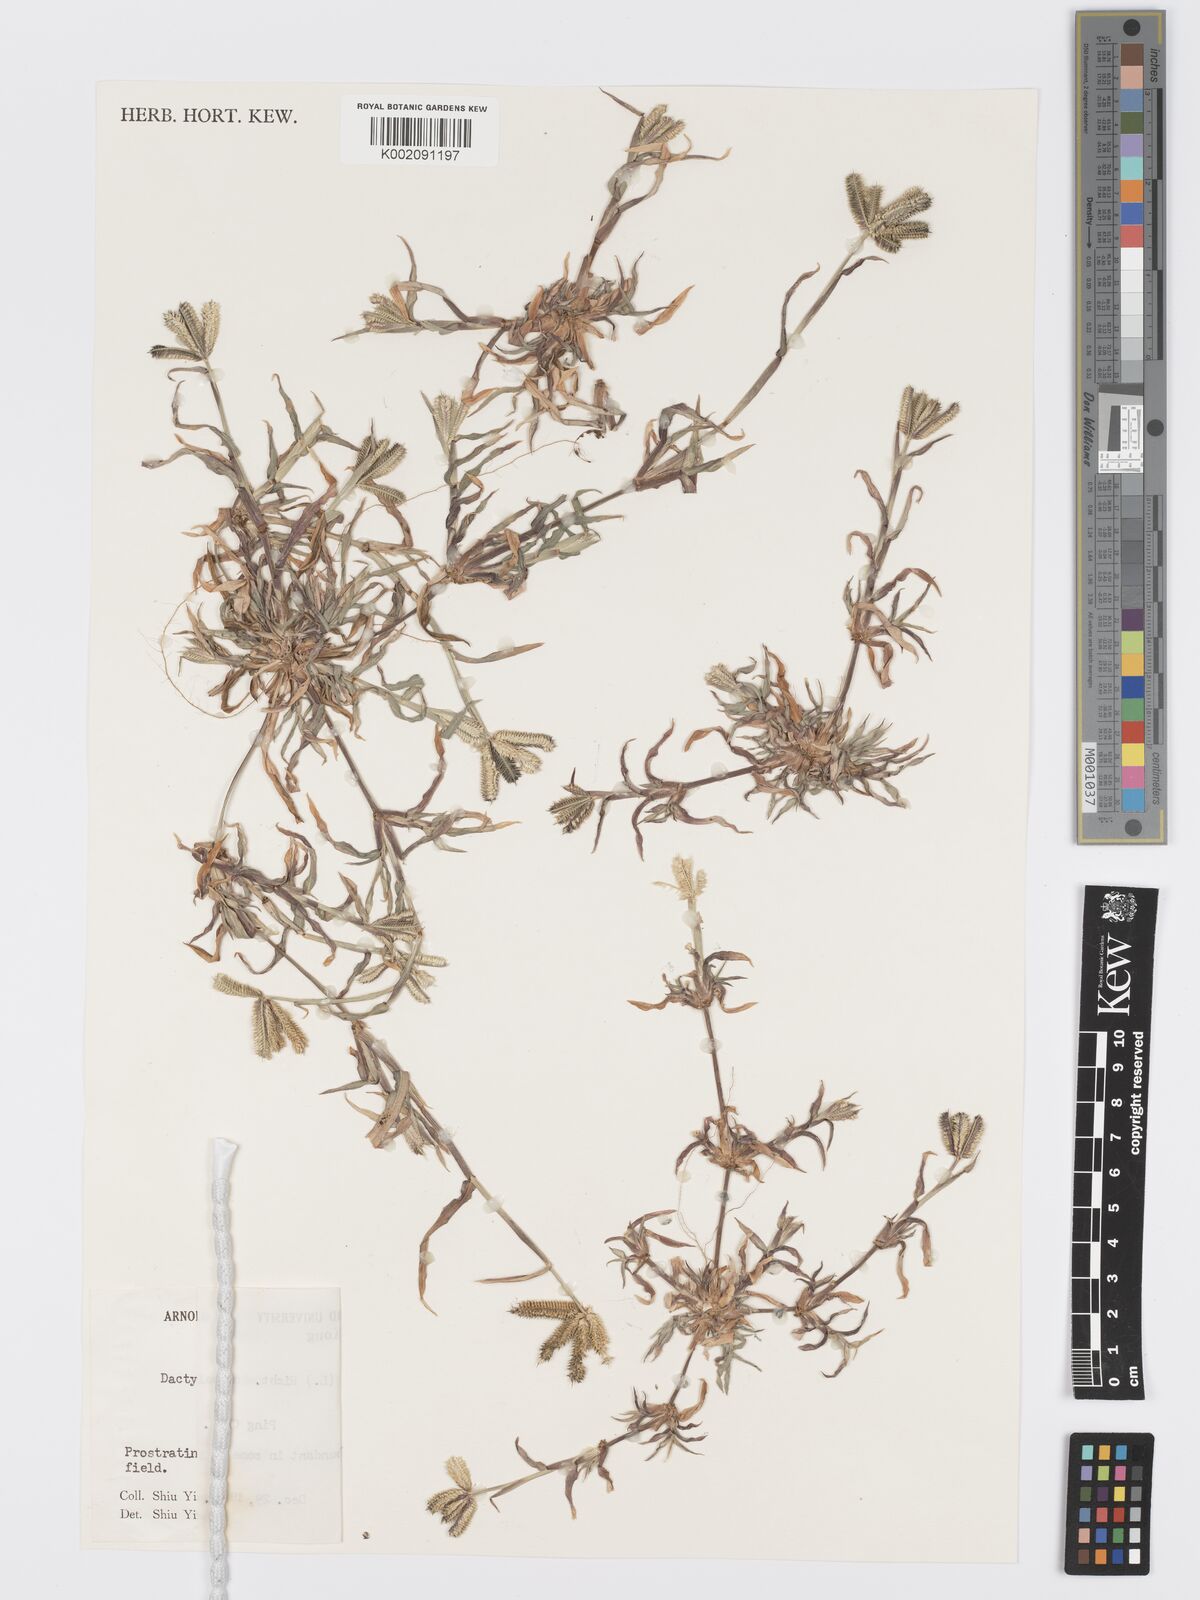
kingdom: Plantae
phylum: Tracheophyta
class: Liliopsida
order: Poales
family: Poaceae
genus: Dactyloctenium
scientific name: Dactyloctenium aegyptium
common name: Egyptian grass
